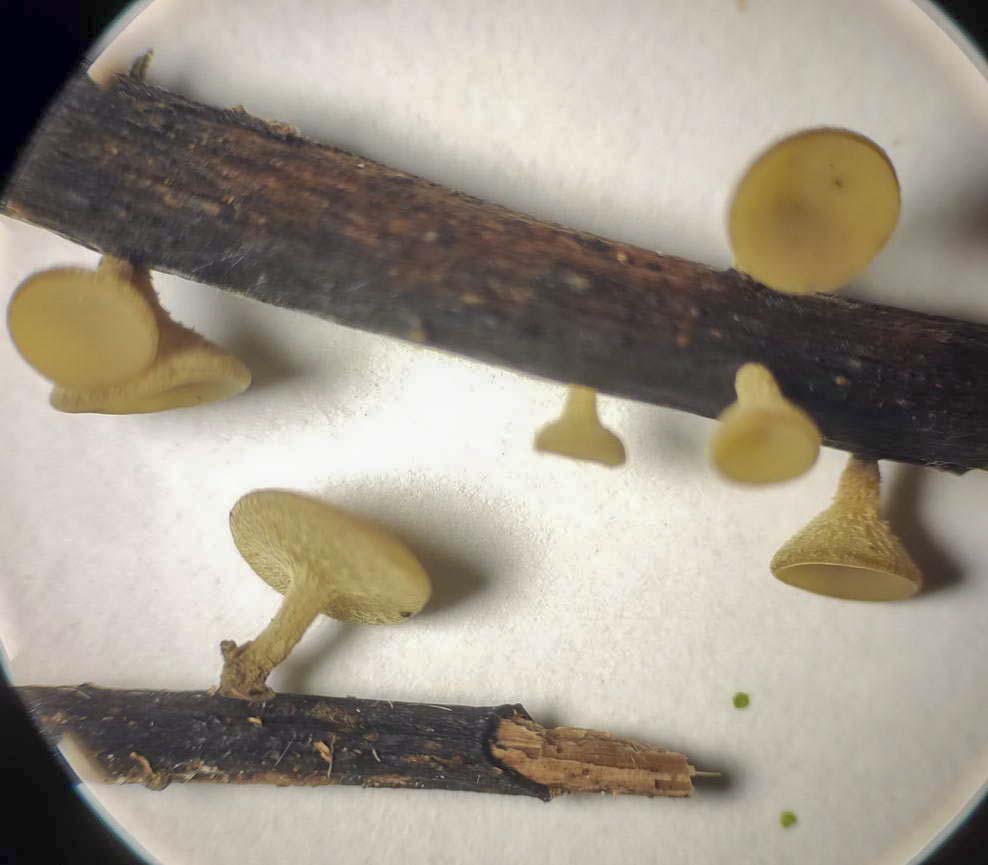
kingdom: Fungi
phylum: Ascomycota
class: Leotiomycetes
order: Helotiales
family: Rutstroemiaceae
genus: Lanzia
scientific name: Lanzia luteovirescens
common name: olivengul brunskive
